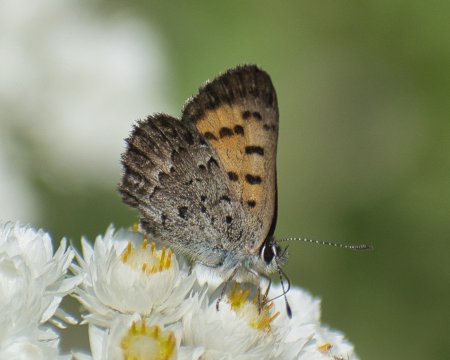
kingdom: Animalia
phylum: Arthropoda
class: Insecta
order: Lepidoptera
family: Lycaenidae
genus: Lycaena
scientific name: Lycaena mariposa
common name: Mariposa Copper
